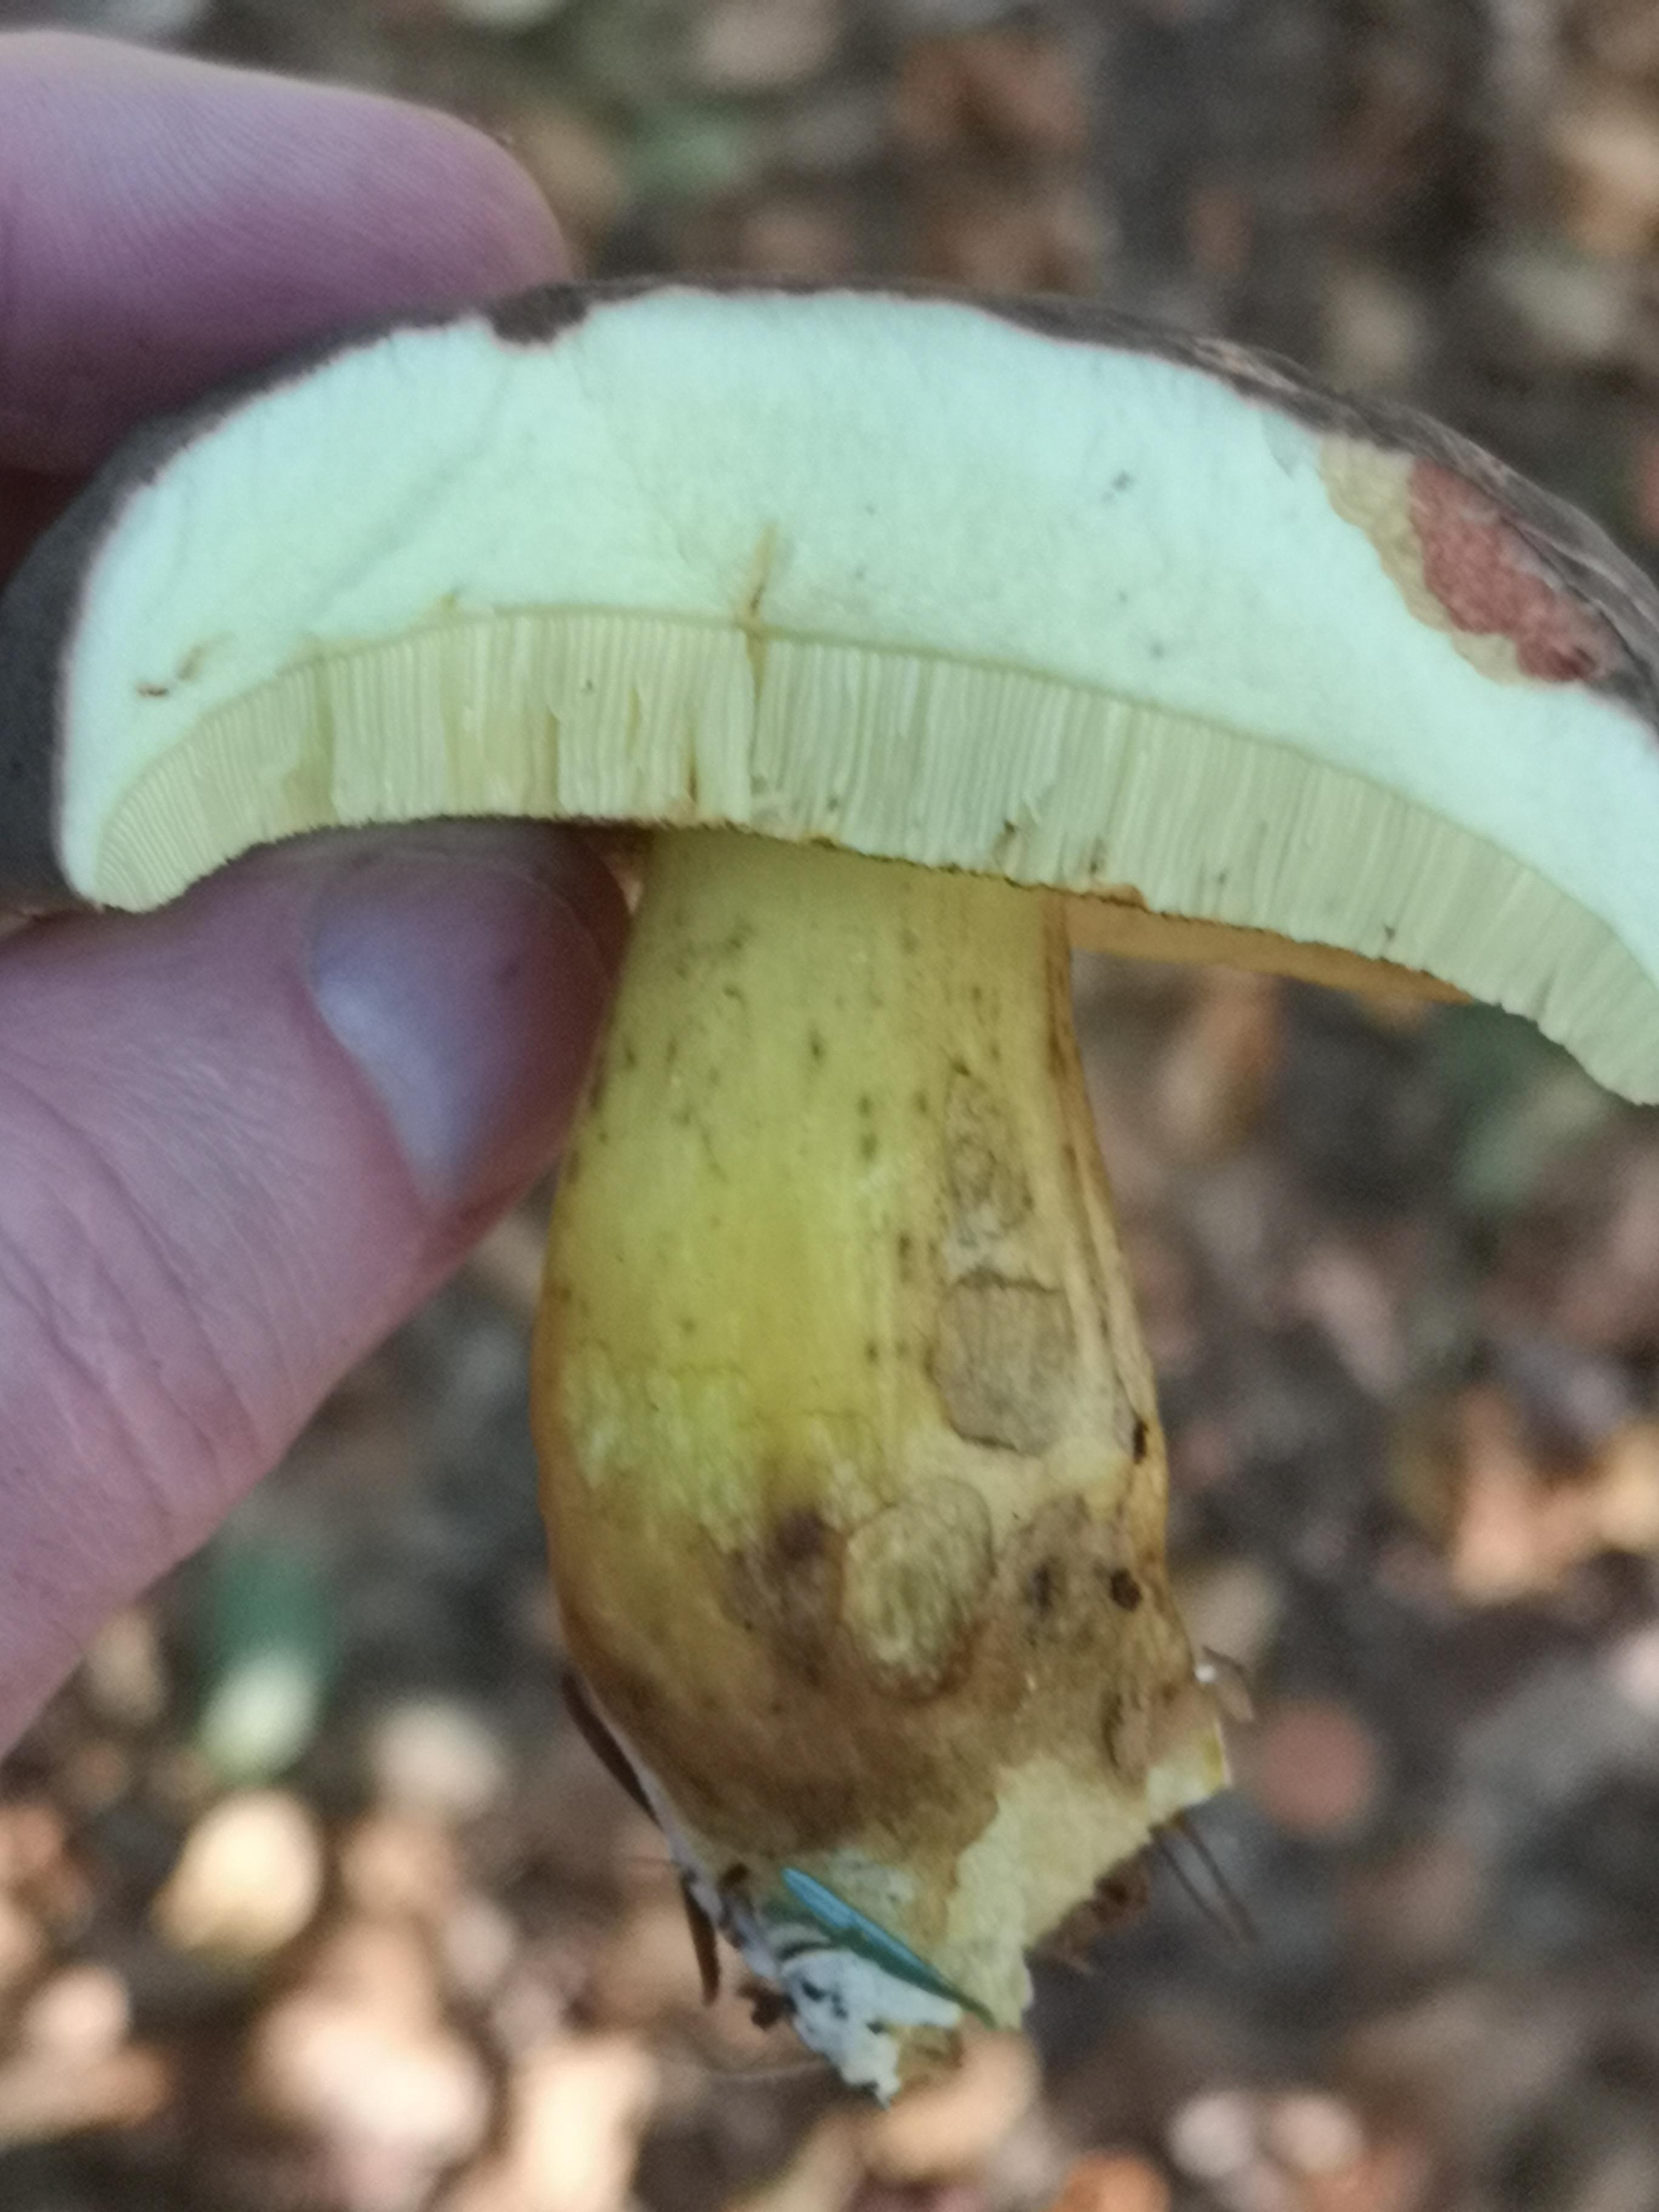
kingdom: Fungi
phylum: Basidiomycota
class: Agaricomycetes
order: Boletales
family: Boletaceae
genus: Xerocomellus
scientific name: Xerocomellus pruinatus
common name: dugget rørhat
